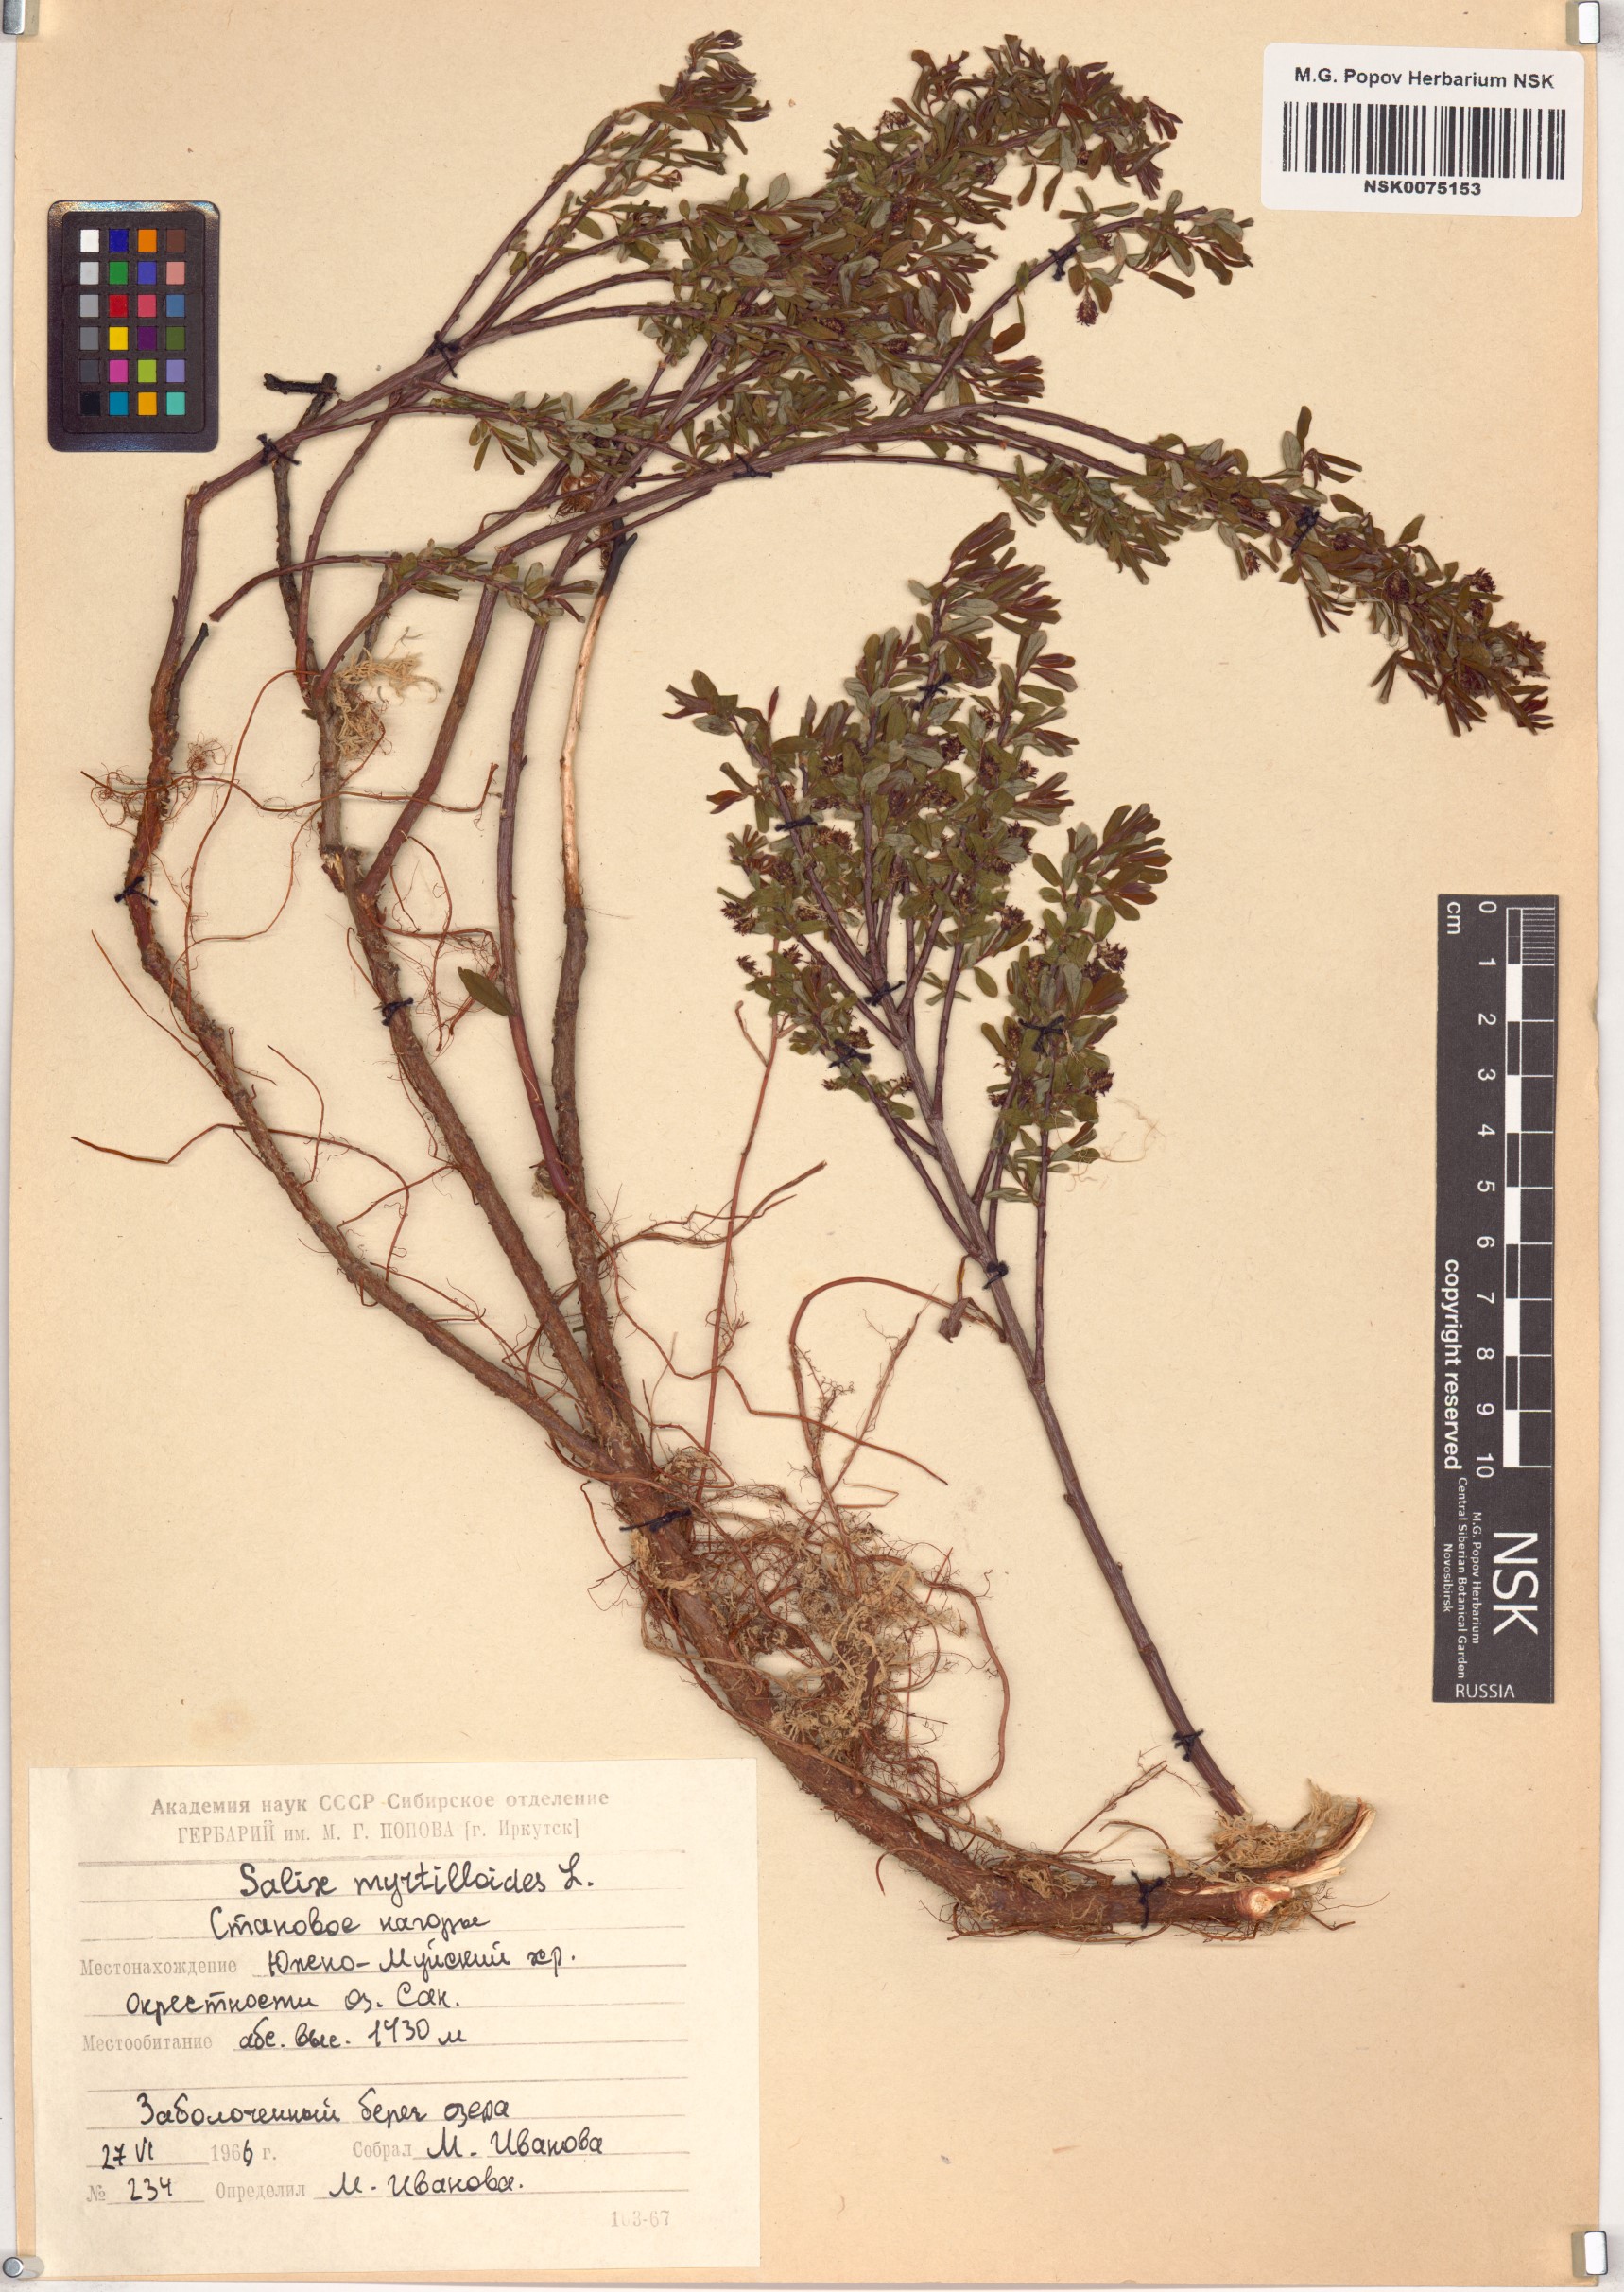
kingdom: Plantae
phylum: Tracheophyta
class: Magnoliopsida
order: Malpighiales
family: Salicaceae
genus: Salix
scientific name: Salix myrtilloides
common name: Myrtle-leaved willow
